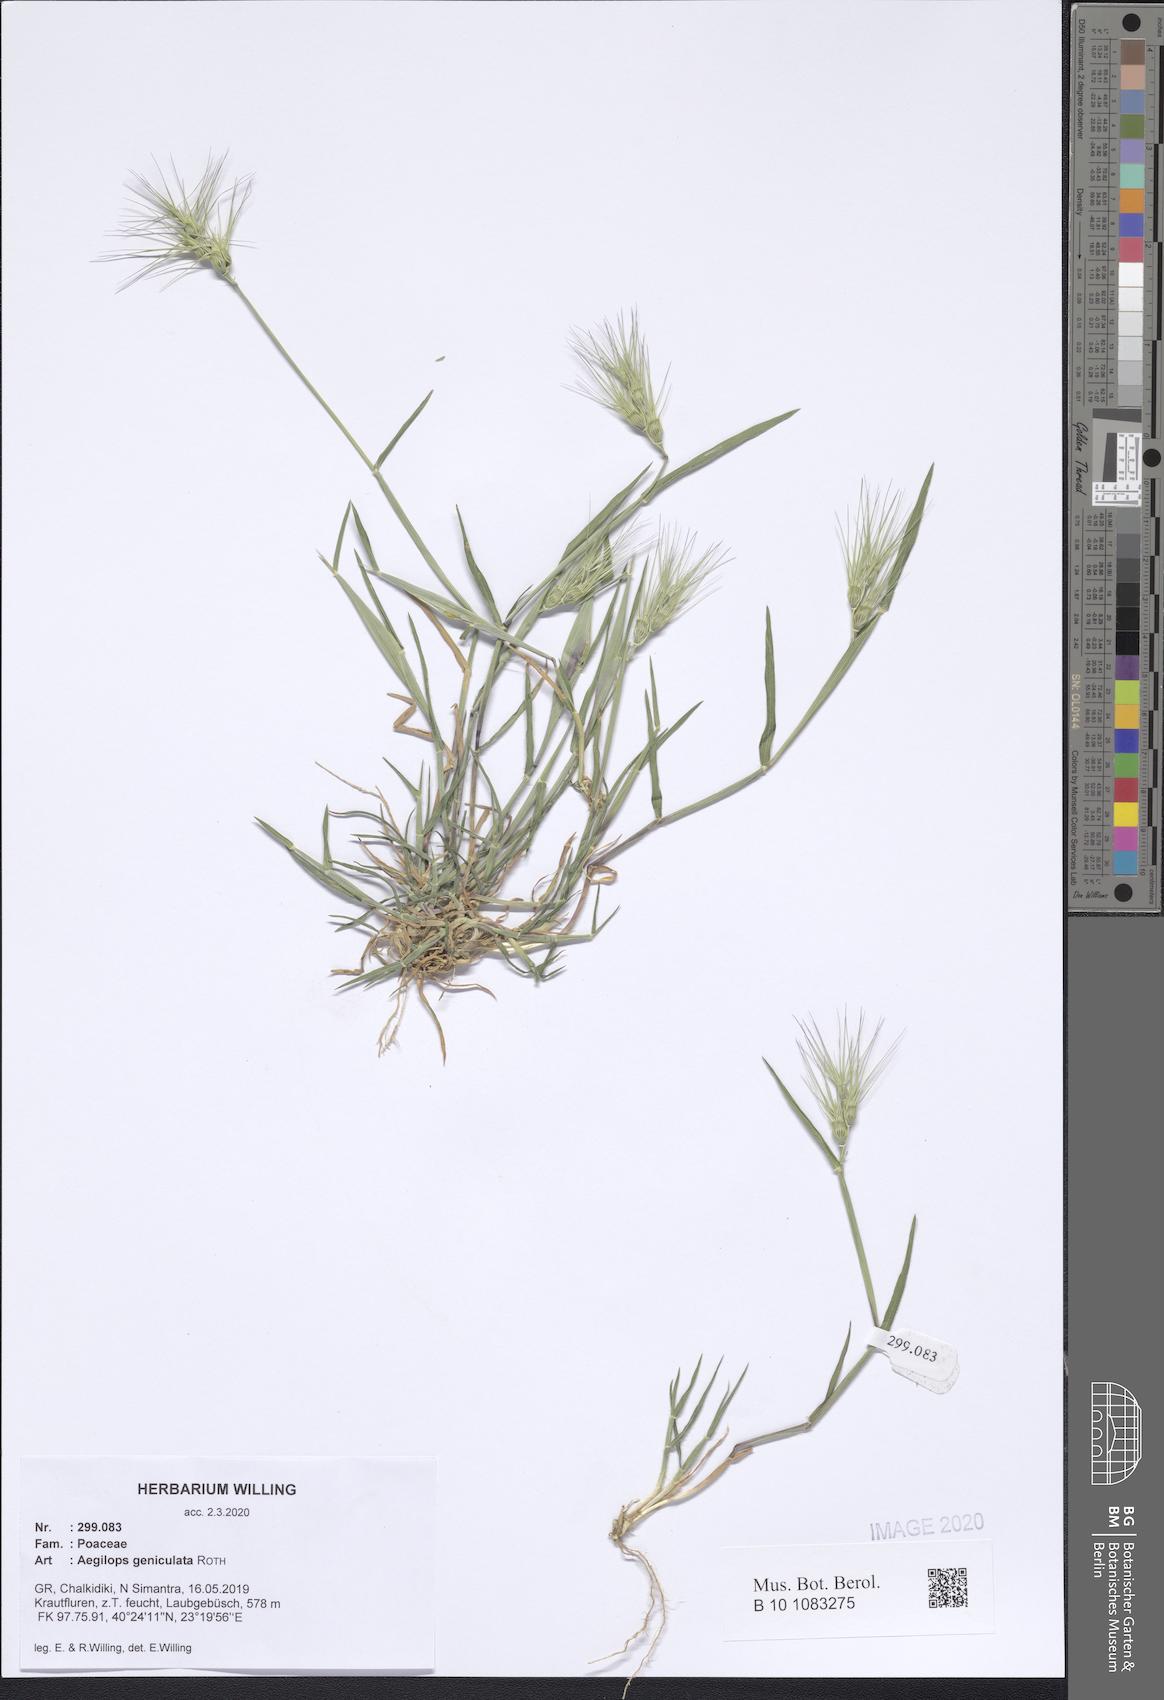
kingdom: Plantae
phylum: Tracheophyta
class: Liliopsida
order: Poales
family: Poaceae
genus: Aegilops
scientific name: Aegilops geniculata
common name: Ovate goat grass
